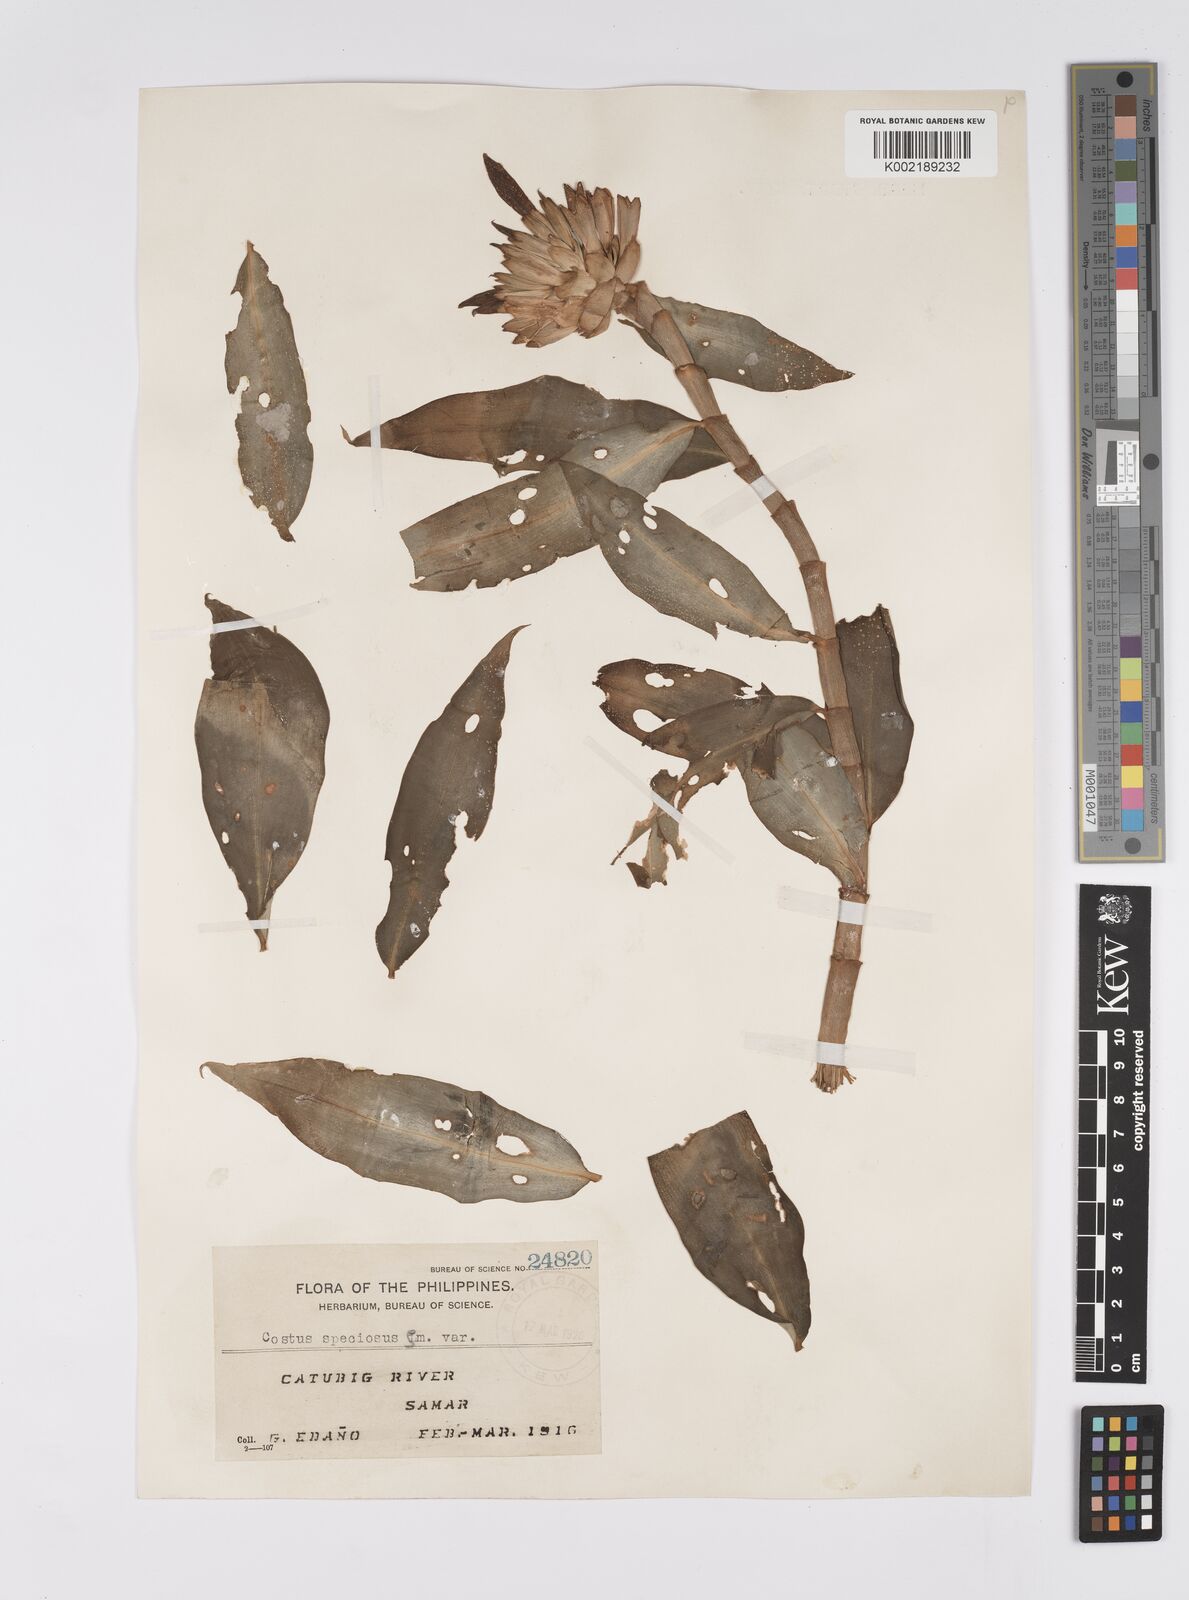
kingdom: Plantae
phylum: Tracheophyta
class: Liliopsida
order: Zingiberales
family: Costaceae
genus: Hellenia
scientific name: Hellenia speciosa
